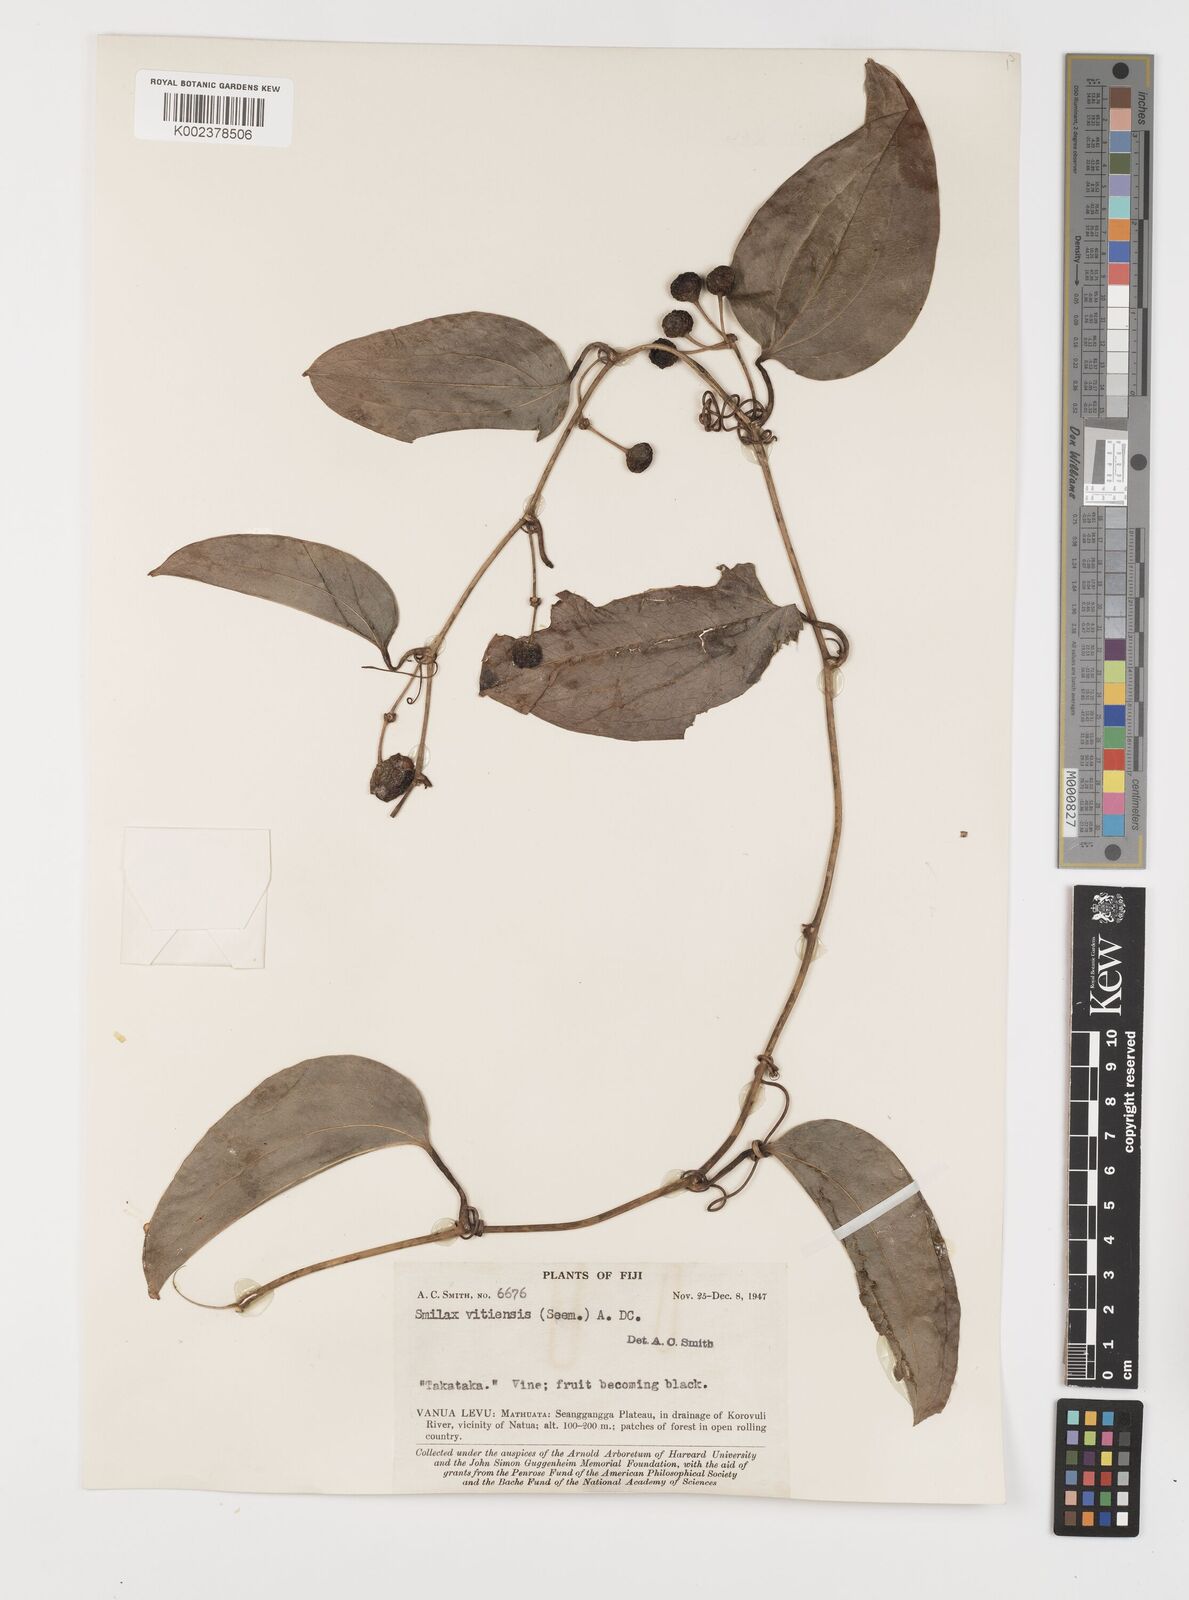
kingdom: Plantae
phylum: Tracheophyta
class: Liliopsida
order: Liliales
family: Smilacaceae
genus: Smilax
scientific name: Smilax vitiensis
